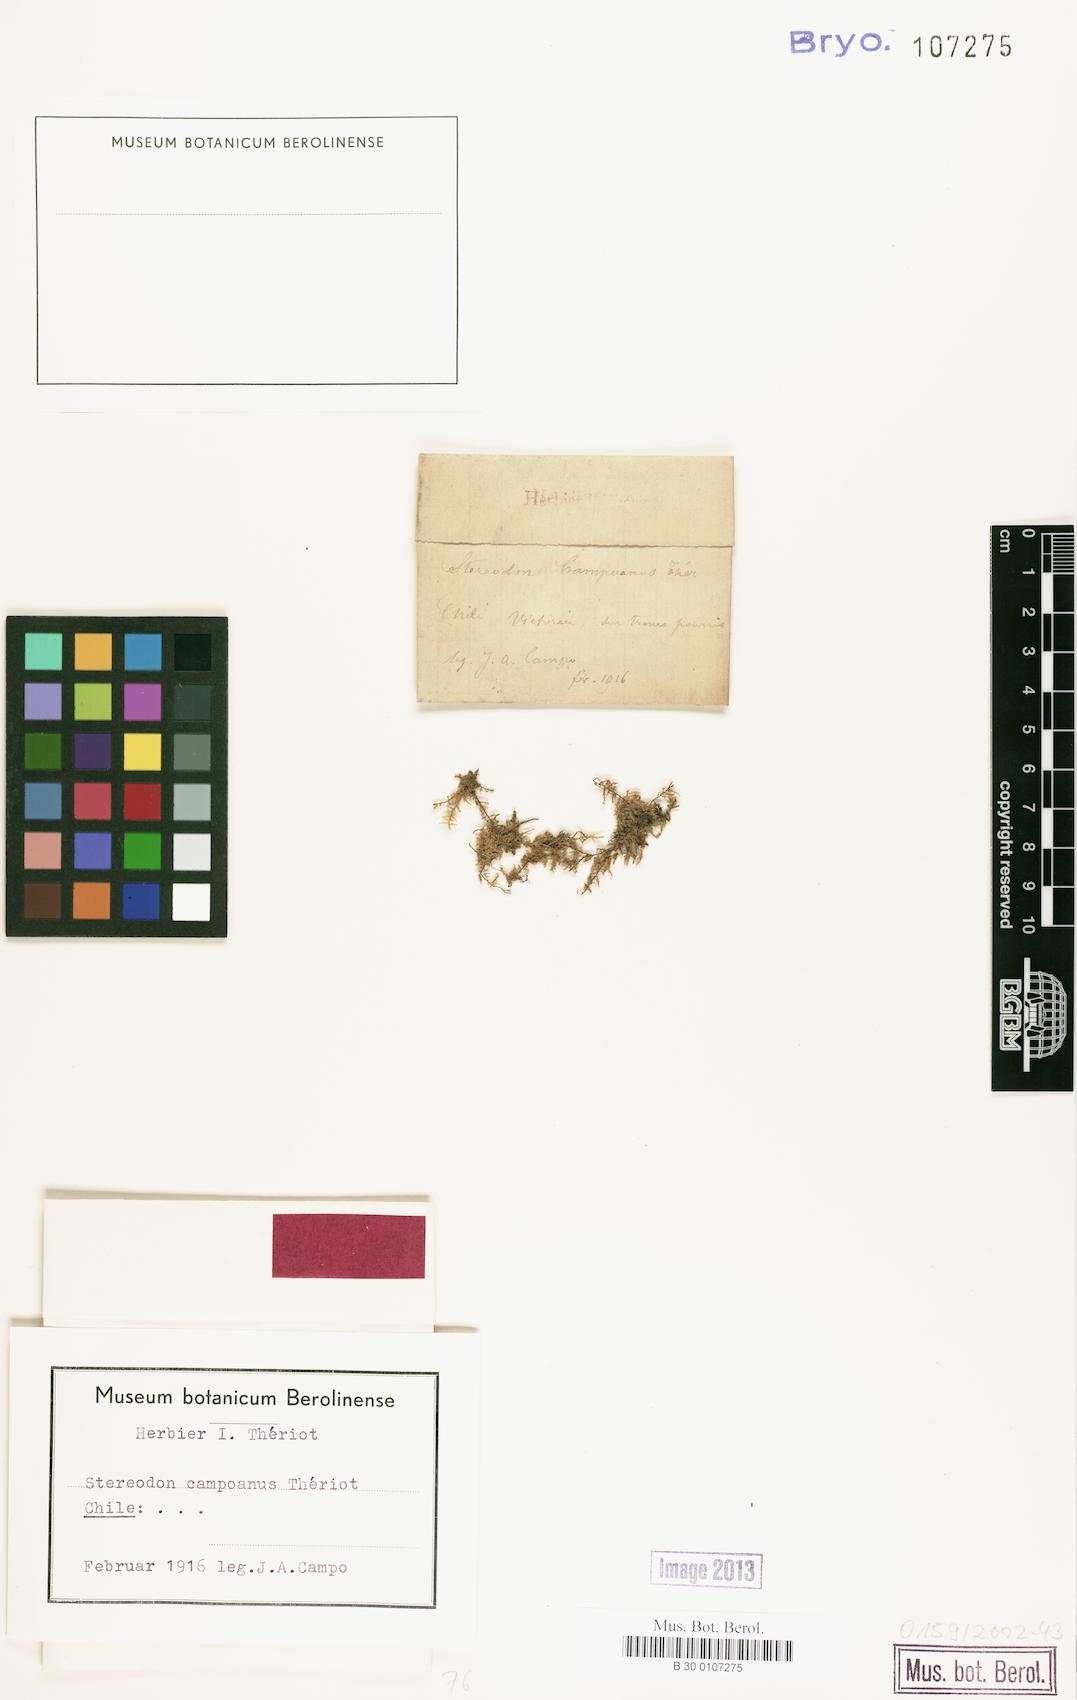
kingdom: Plantae
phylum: Bryophyta
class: Bryopsida
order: Hypnales
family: Hypnaceae
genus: Hypnum
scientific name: Hypnum campoanum
